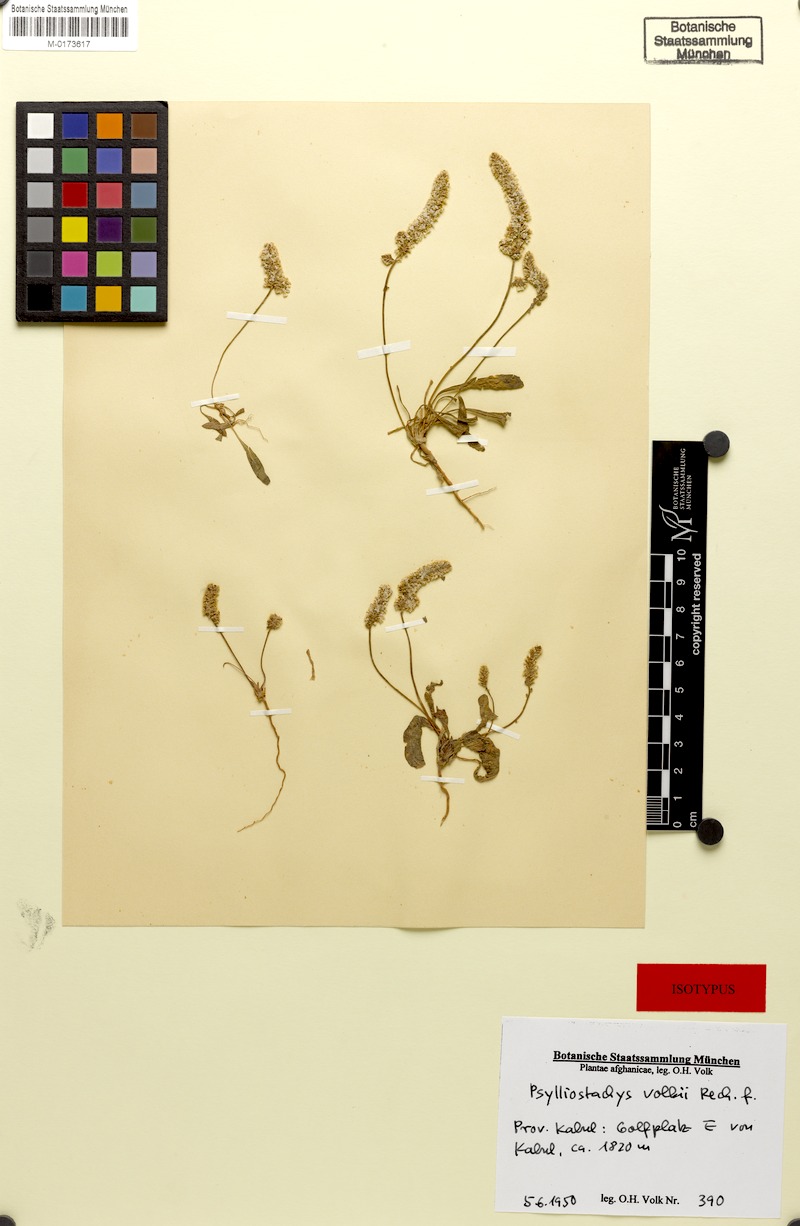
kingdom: Plantae
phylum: Tracheophyta
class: Magnoliopsida
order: Caryophyllales
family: Plumbaginaceae
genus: Psylliostachys
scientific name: Psylliostachys volkii
